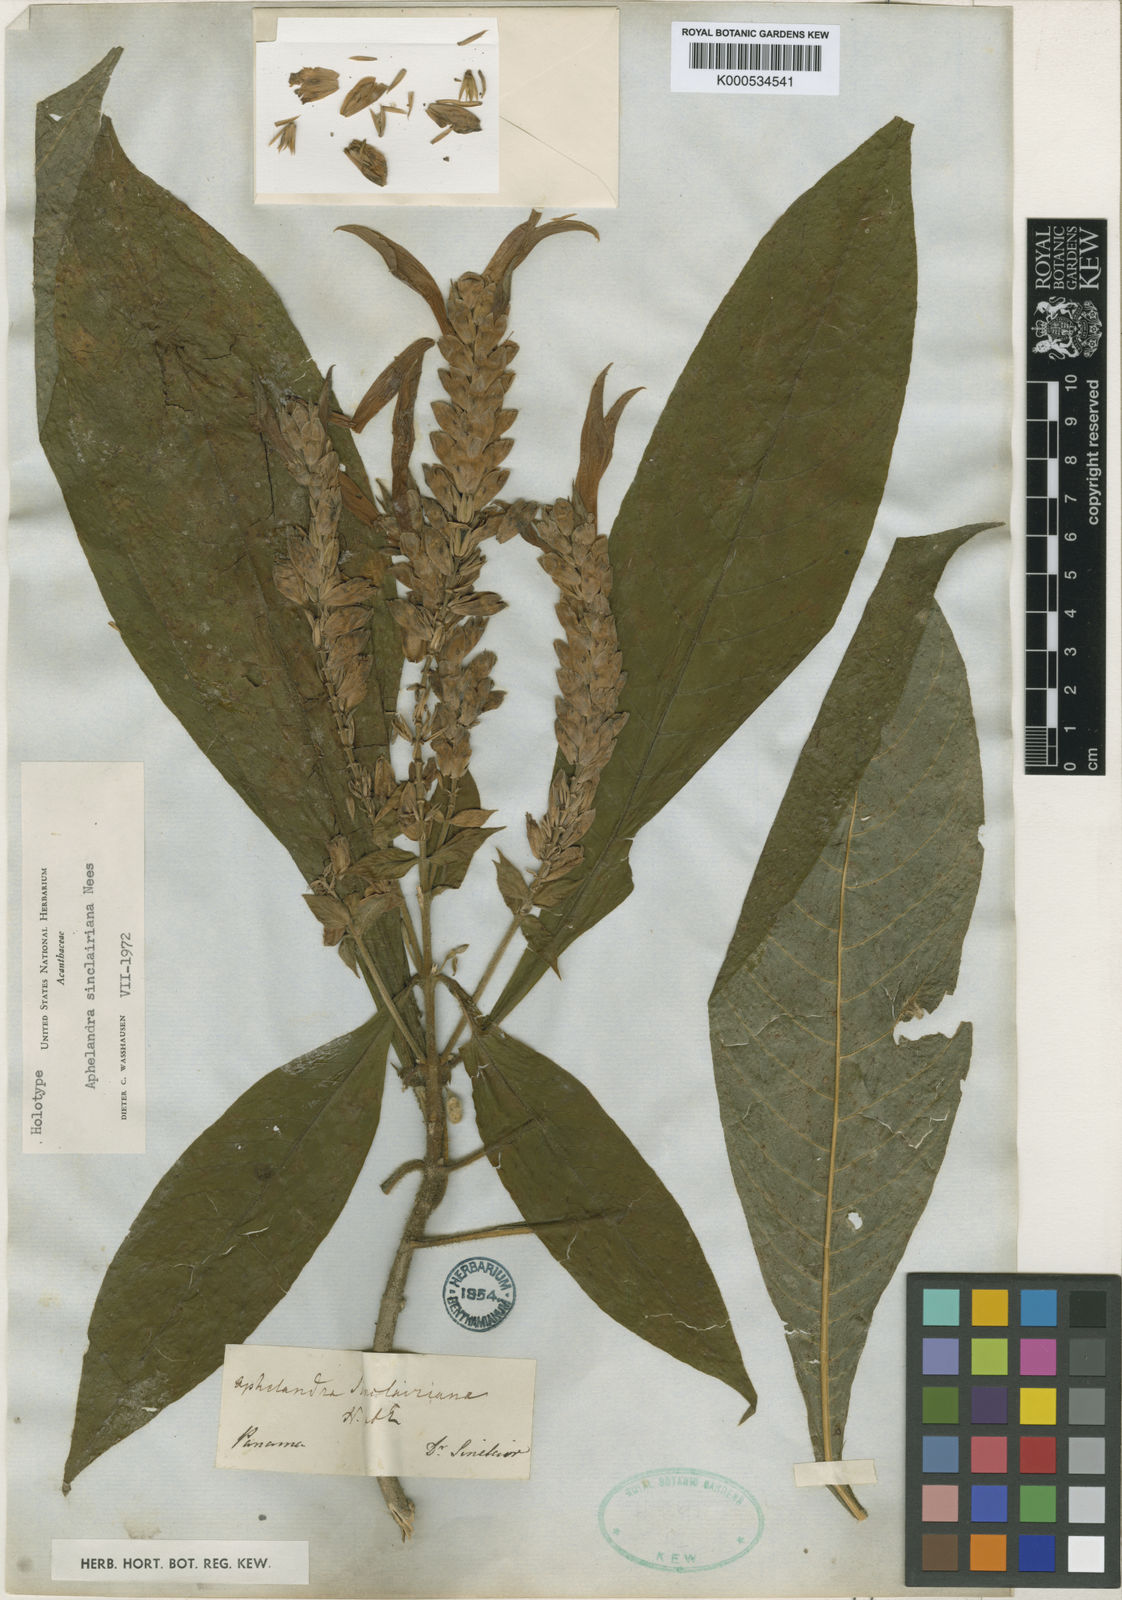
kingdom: Plantae
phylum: Tracheophyta
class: Magnoliopsida
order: Lamiales
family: Acanthaceae
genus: Aphelandra
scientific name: Aphelandra sinclairiana
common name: Coral aphelandra
